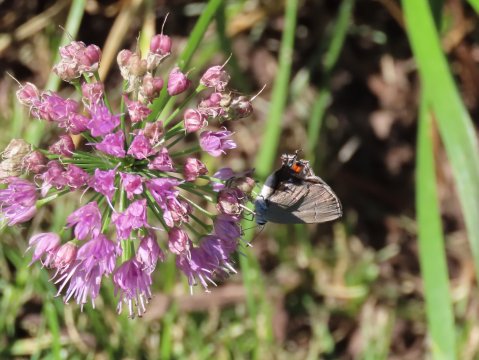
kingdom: Animalia
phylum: Arthropoda
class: Insecta
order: Lepidoptera
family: Lycaenidae
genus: Strymon
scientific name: Strymon melinus
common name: Gray Hairstreak
